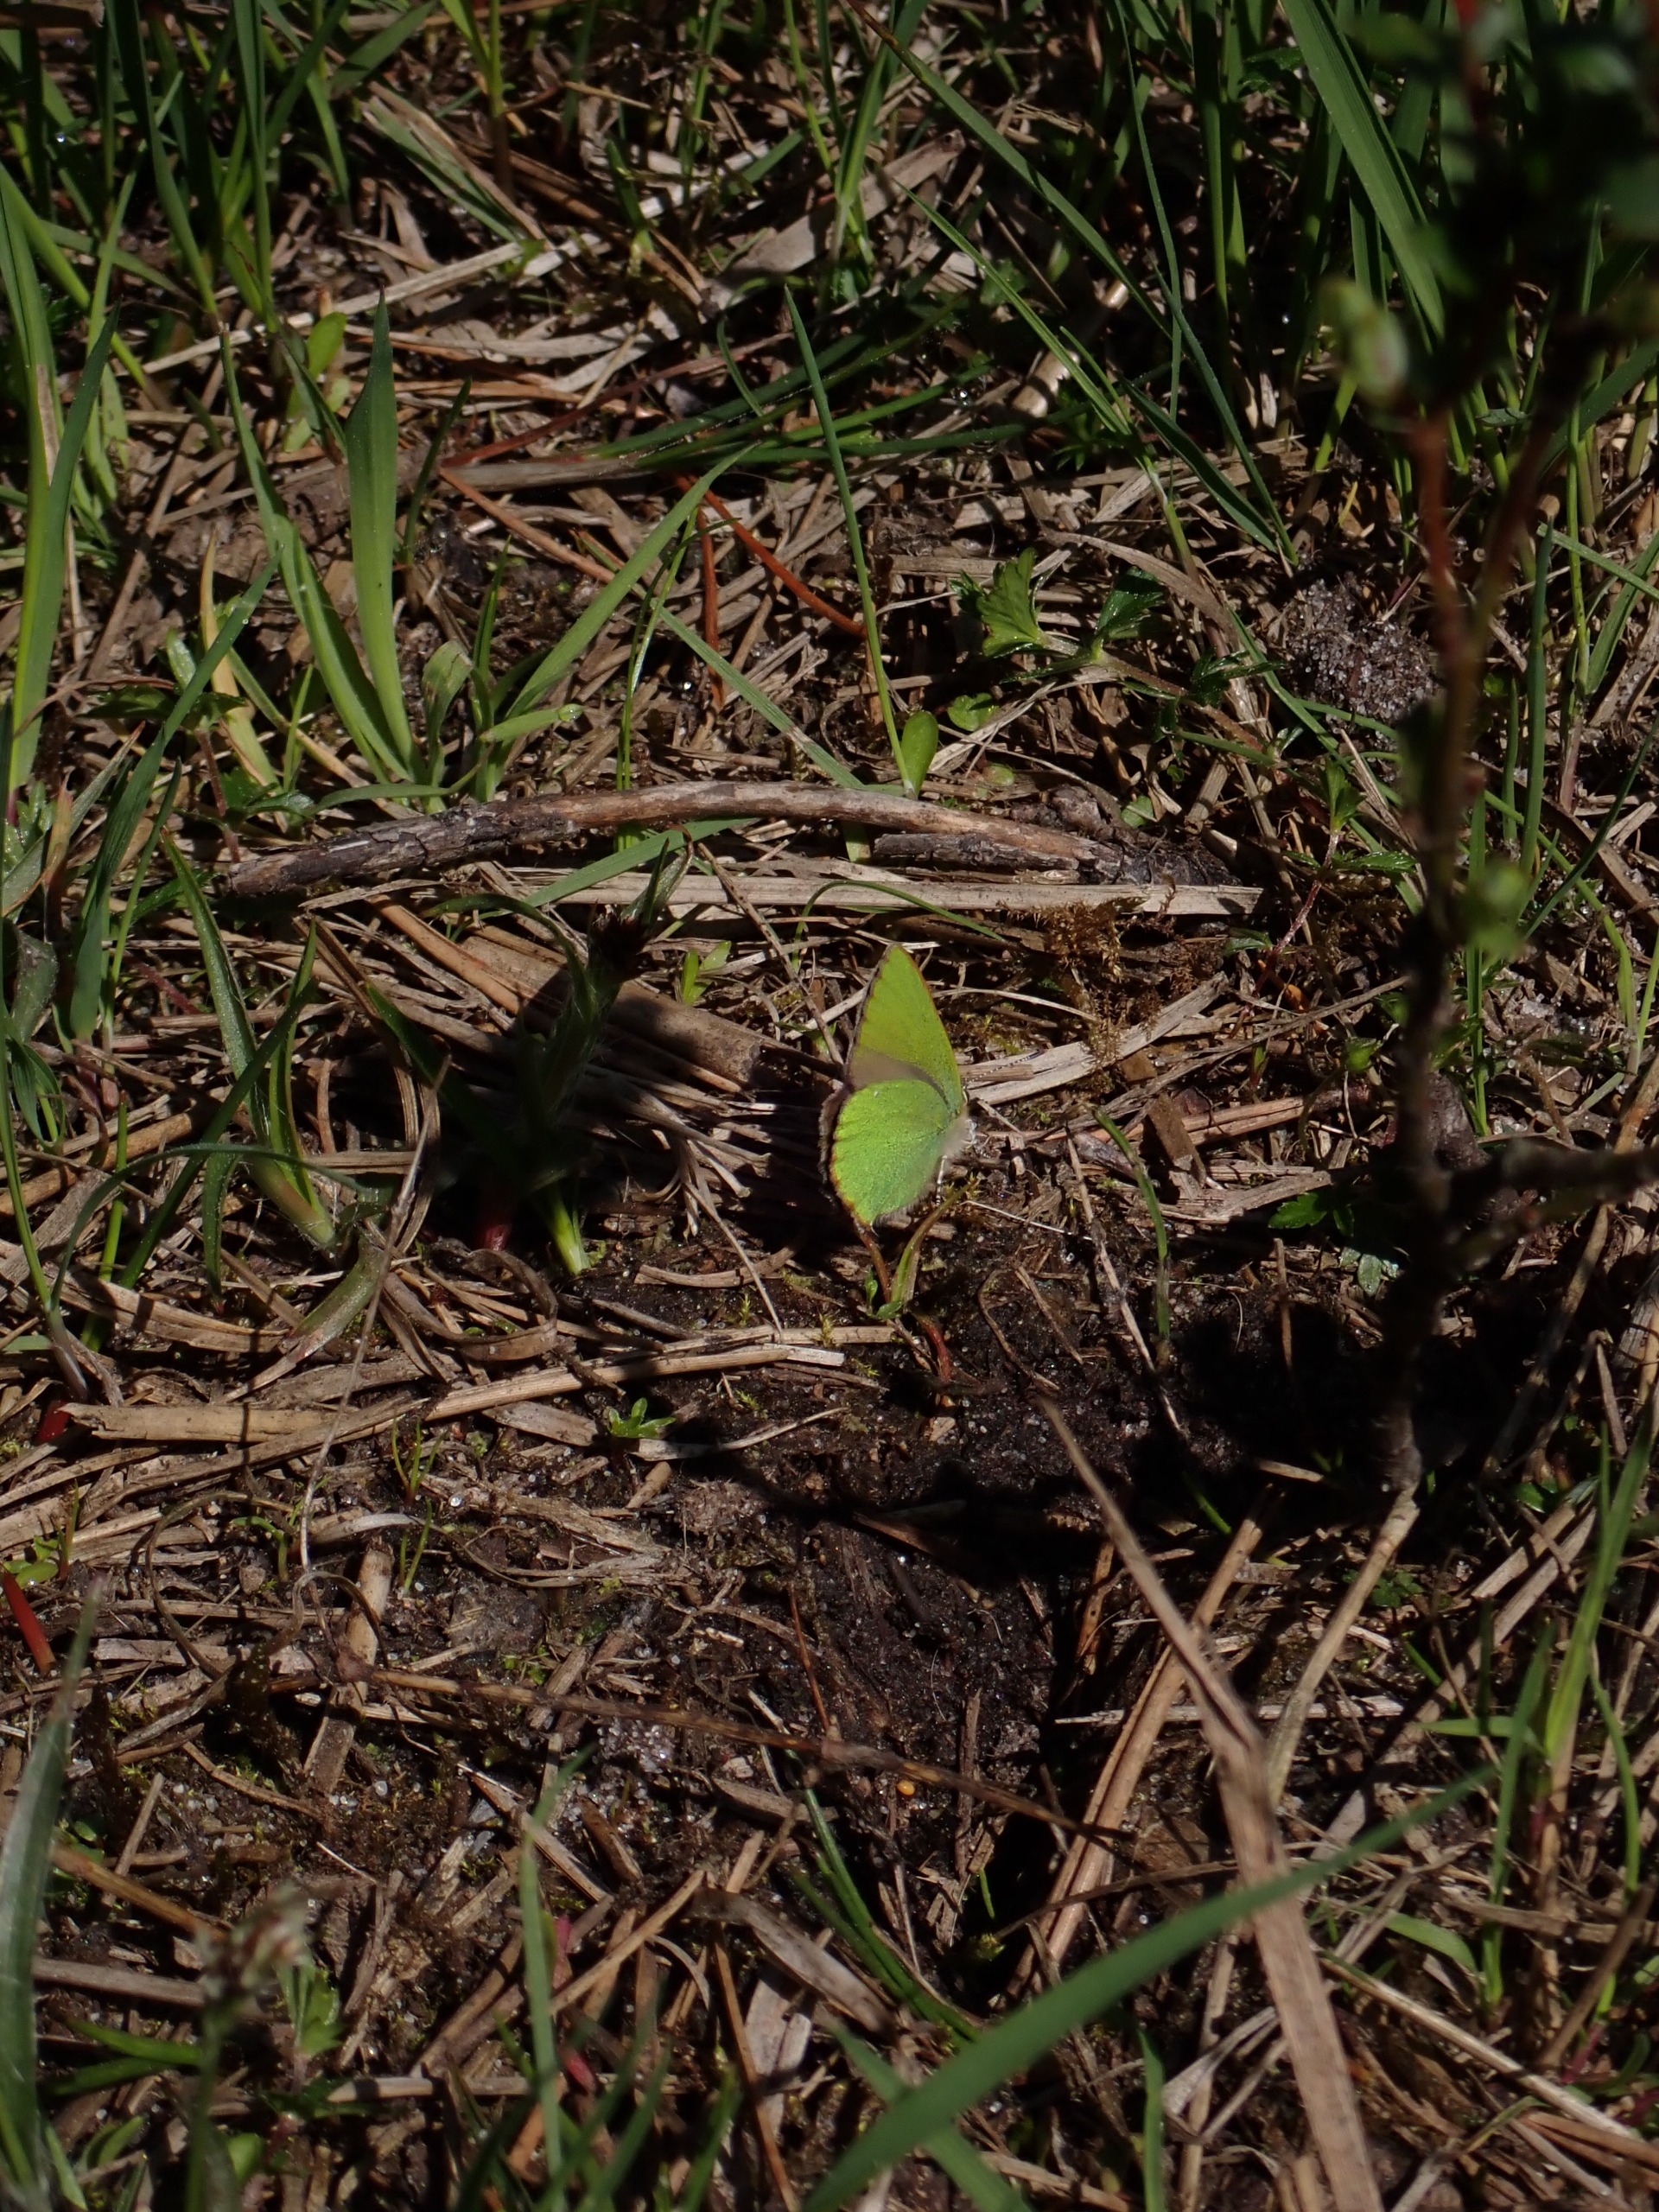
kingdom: Animalia
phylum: Arthropoda
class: Insecta
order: Lepidoptera
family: Lycaenidae
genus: Callophrys
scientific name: Callophrys rubi
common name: Grøn busksommerfugl
